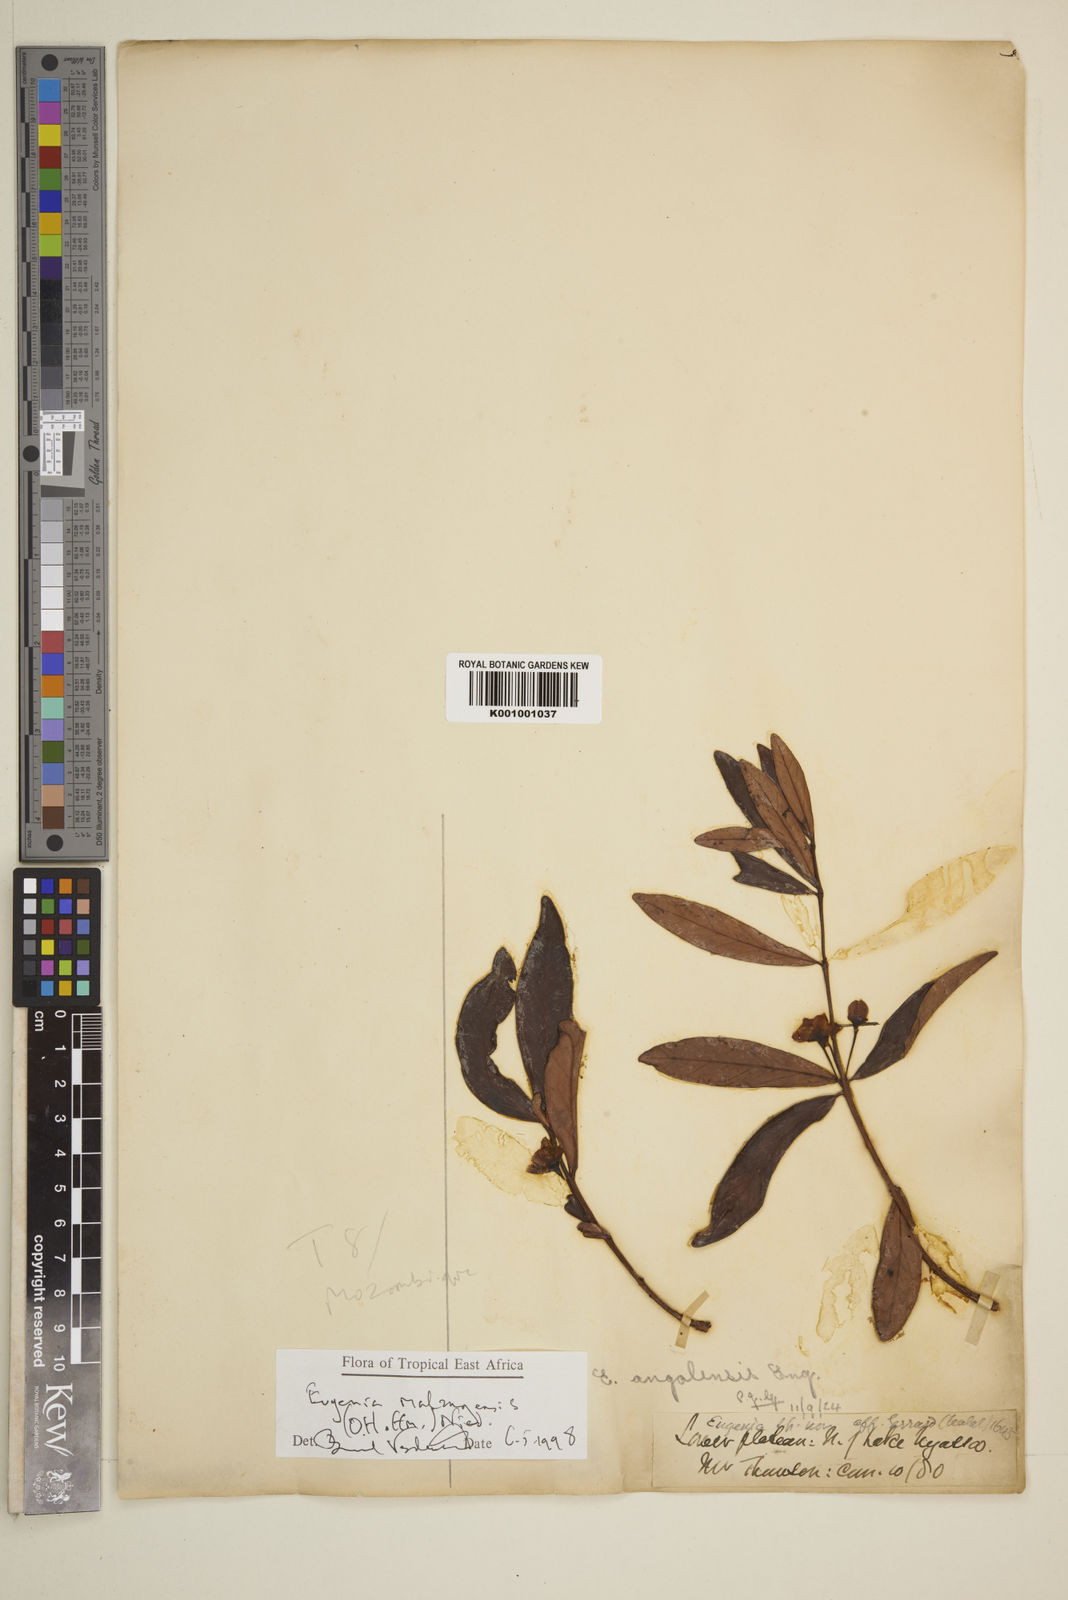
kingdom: Plantae
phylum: Tracheophyta
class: Magnoliopsida
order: Myrtales
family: Myrtaceae
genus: Eugenia
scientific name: Eugenia malangensis
